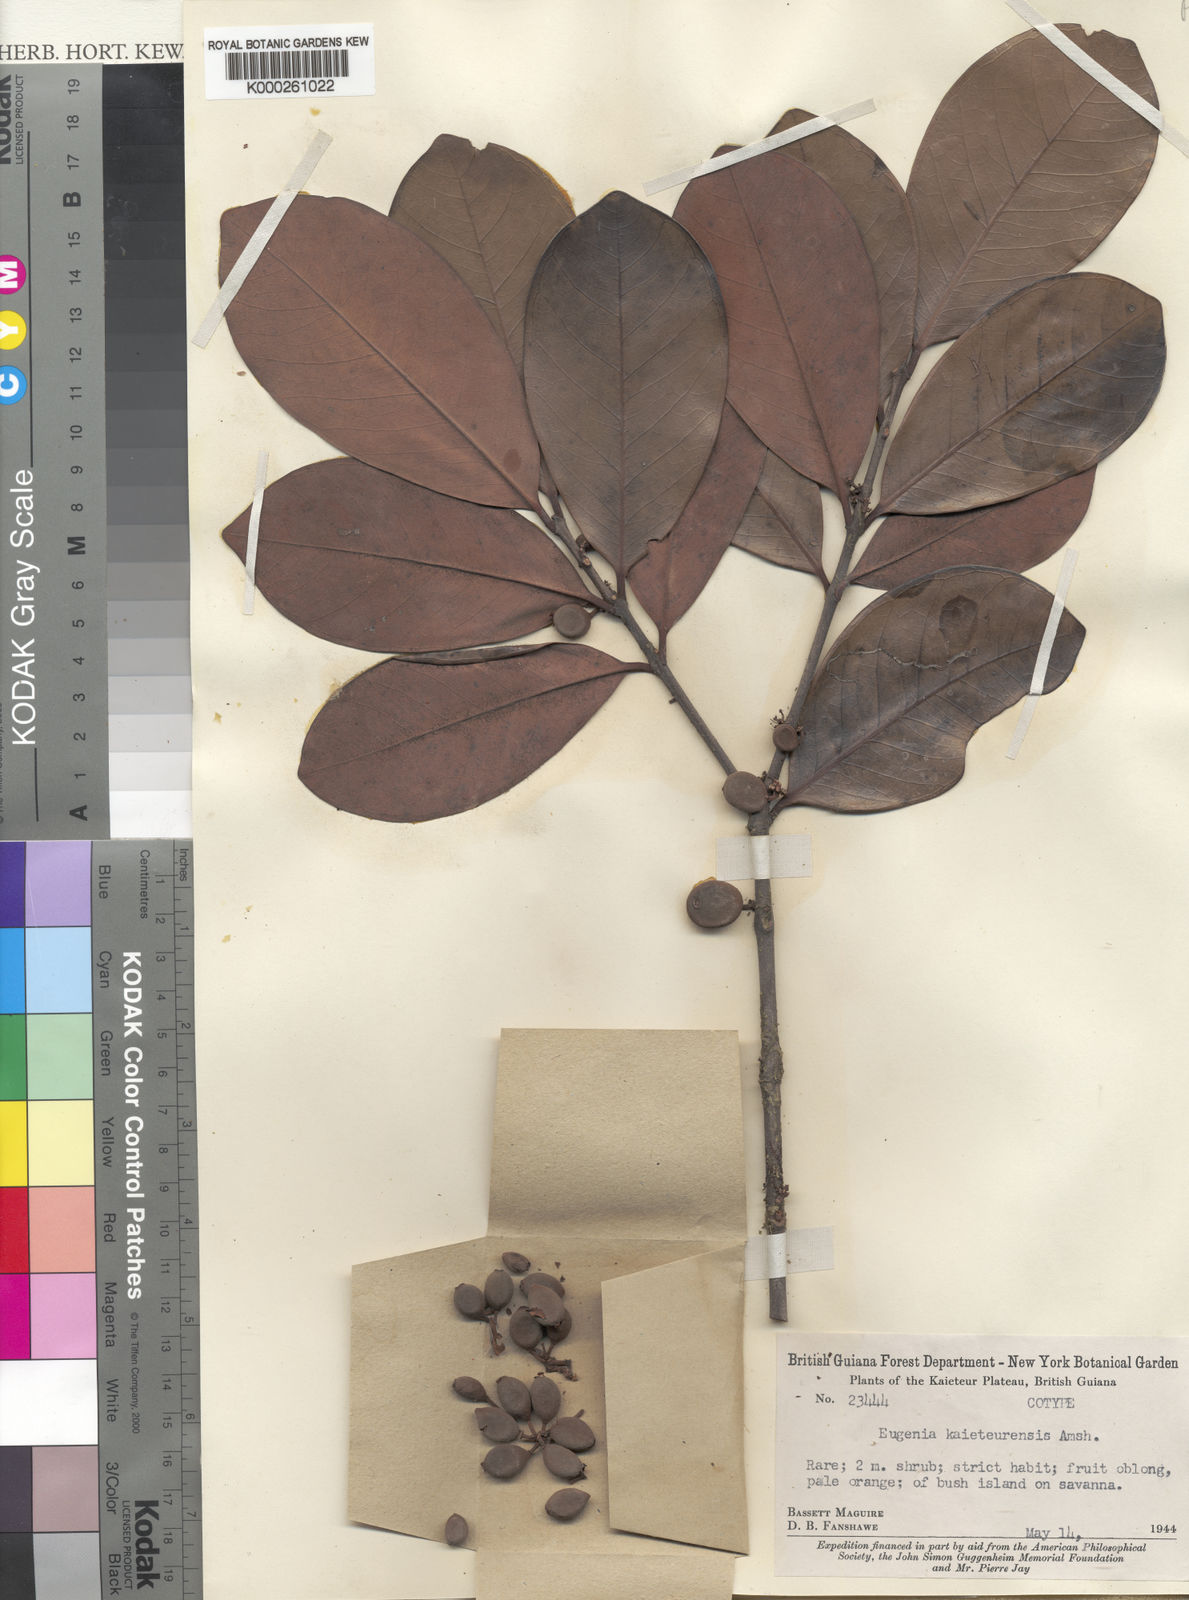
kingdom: Plantae
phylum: Tracheophyta
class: Magnoliopsida
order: Myrtales
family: Myrtaceae
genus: Eugenia
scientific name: Eugenia kaieteurensis
